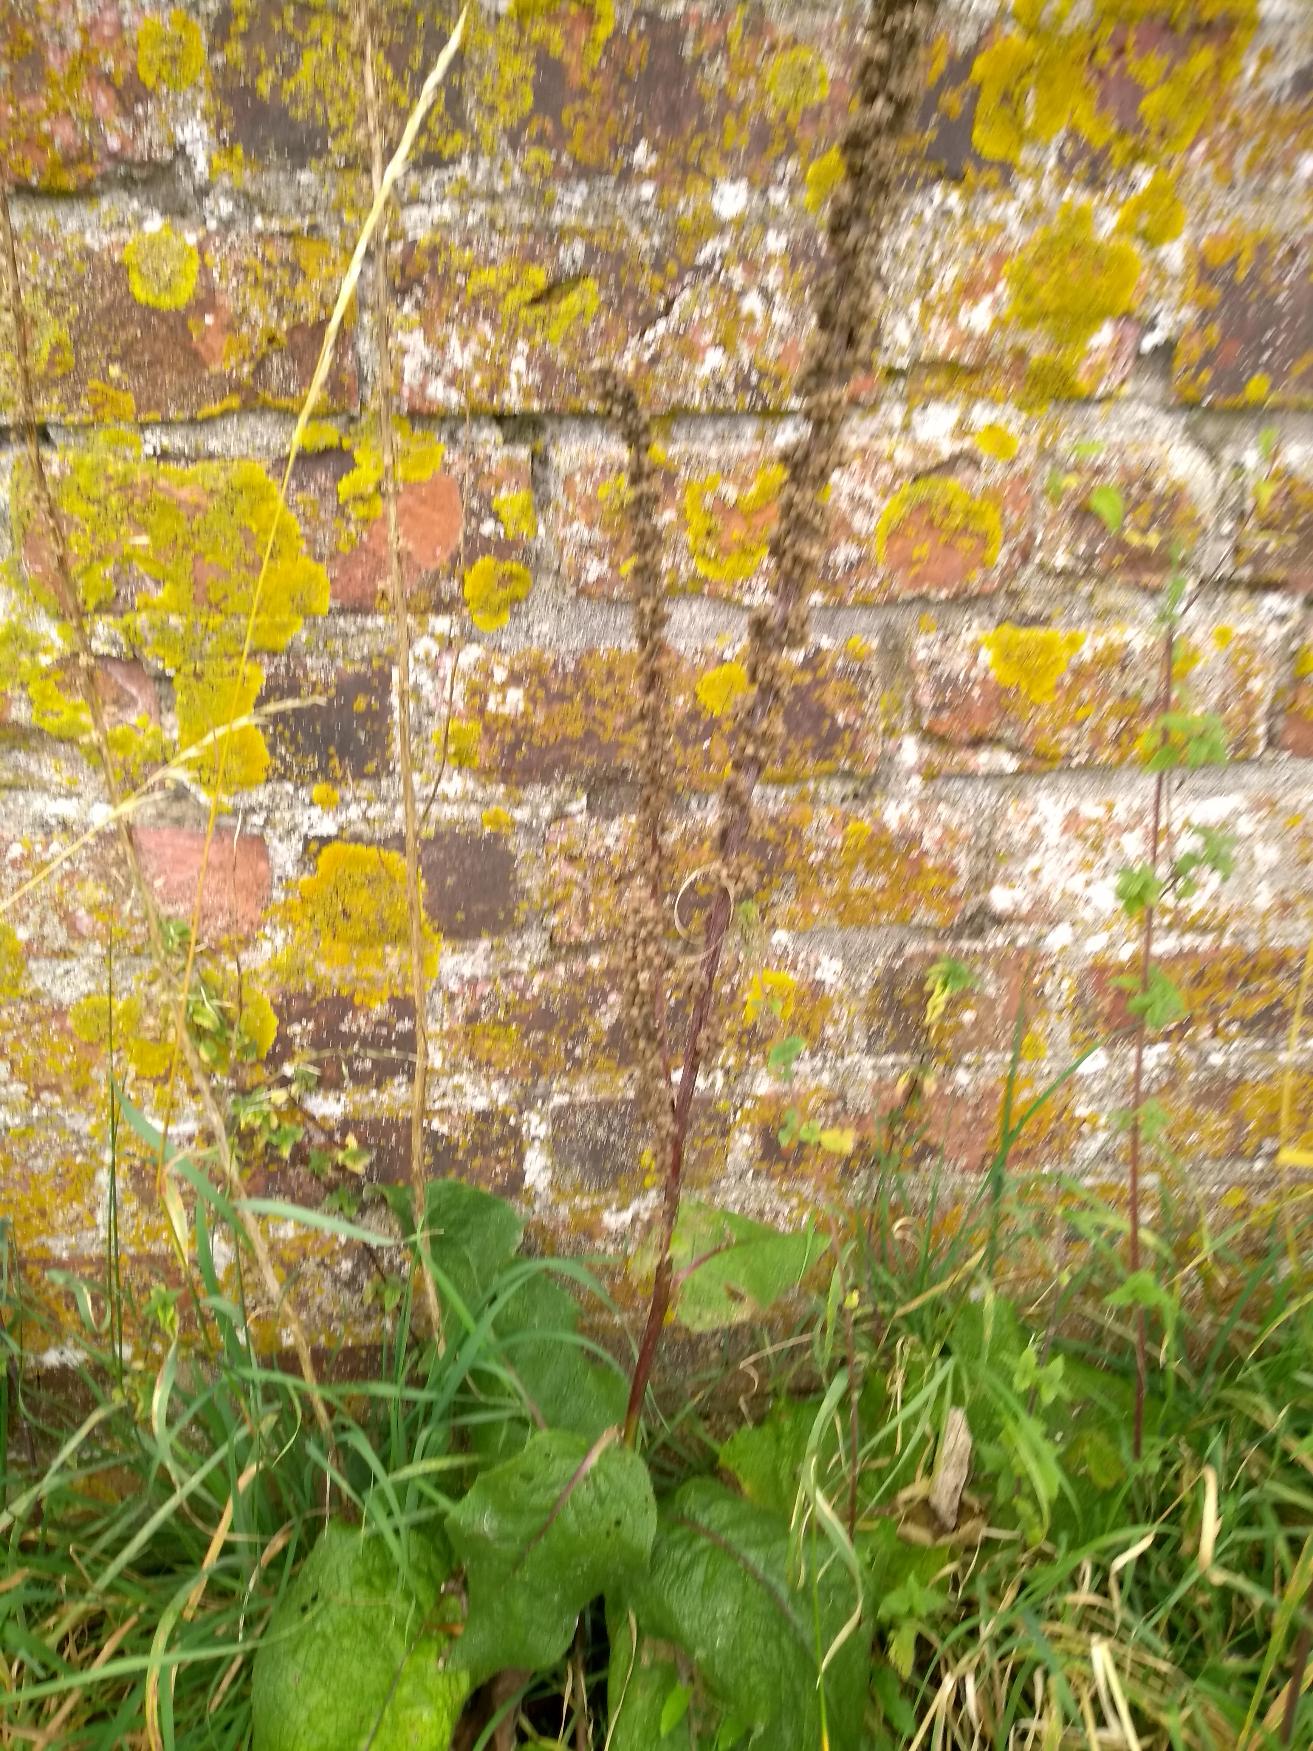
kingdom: Plantae
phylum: Tracheophyta
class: Magnoliopsida
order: Lamiales
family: Scrophulariaceae
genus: Verbascum
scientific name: Verbascum nigrum
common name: Mørk kongelys
